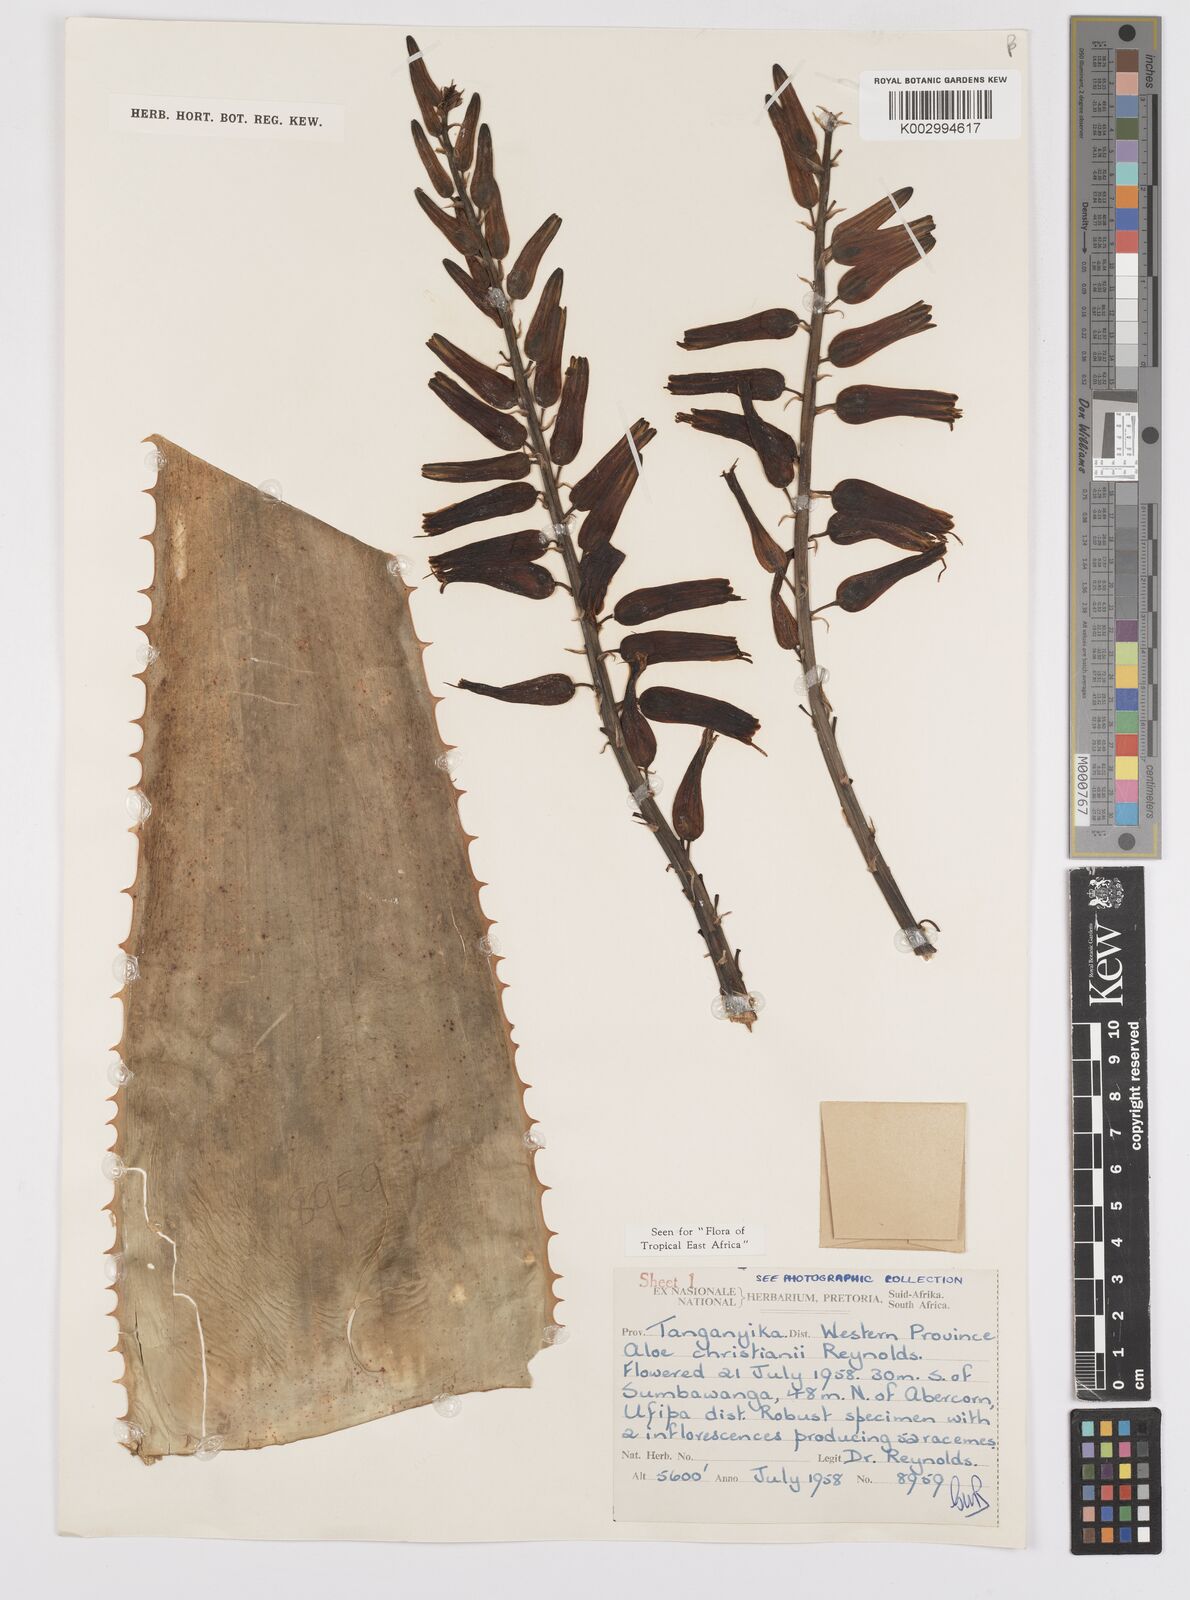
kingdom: Plantae
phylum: Tracheophyta
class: Liliopsida
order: Asparagales
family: Asphodelaceae
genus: Aloe
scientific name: Aloe christianii
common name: Basil christian's aloe
